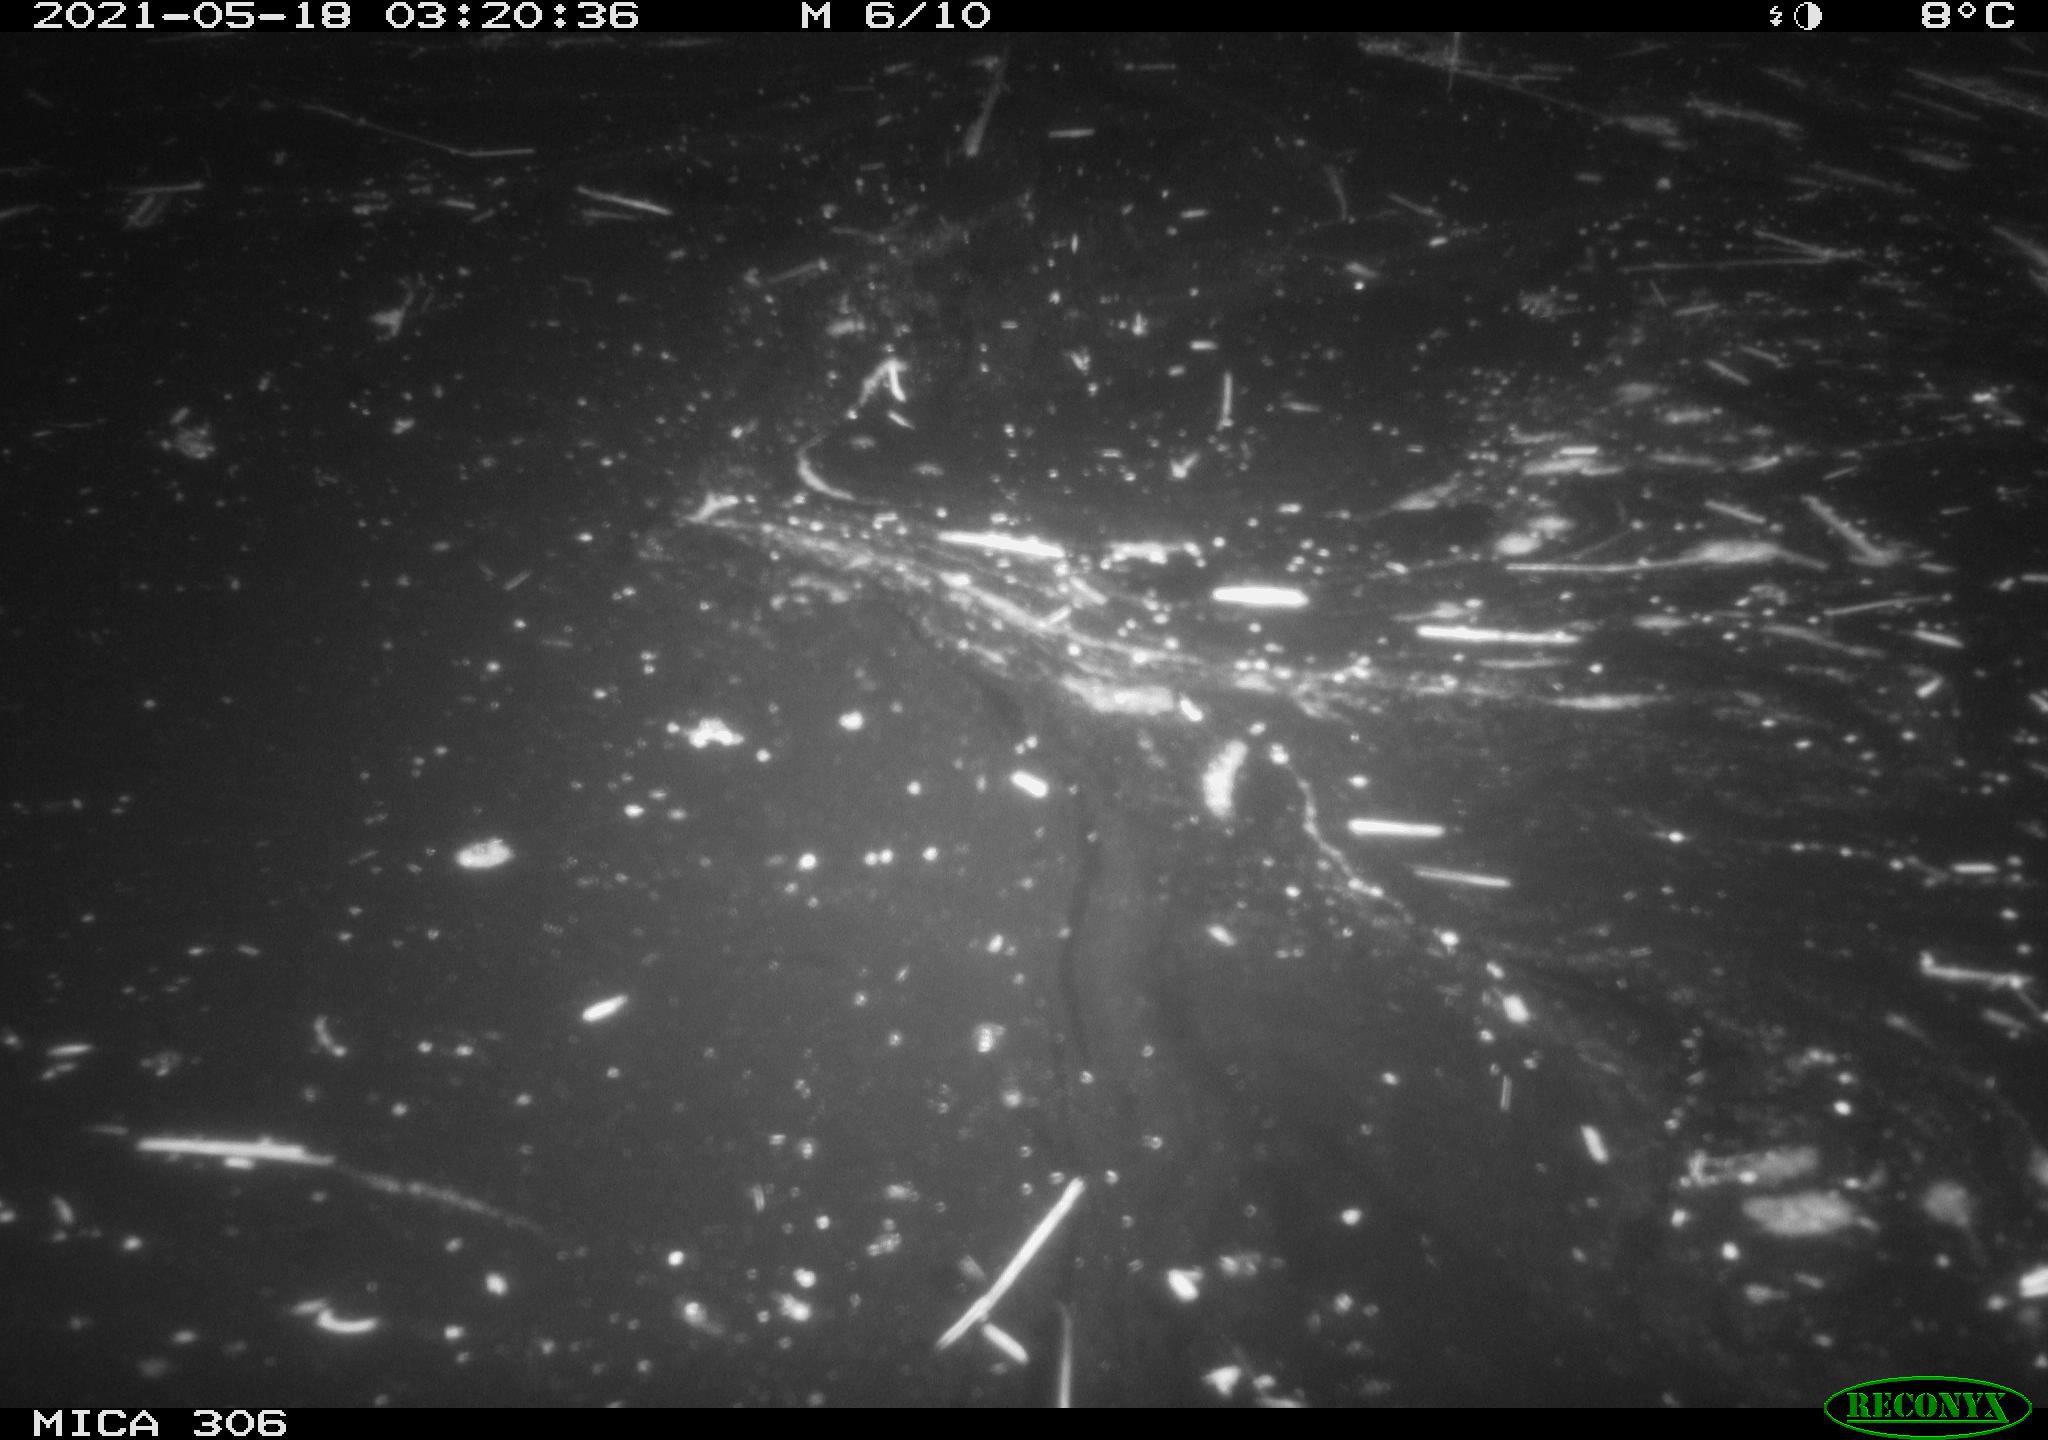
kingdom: Animalia
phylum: Chordata
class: Aves
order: Anseriformes
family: Anatidae
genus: Anas
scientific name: Anas platyrhynchos
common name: Mallard
